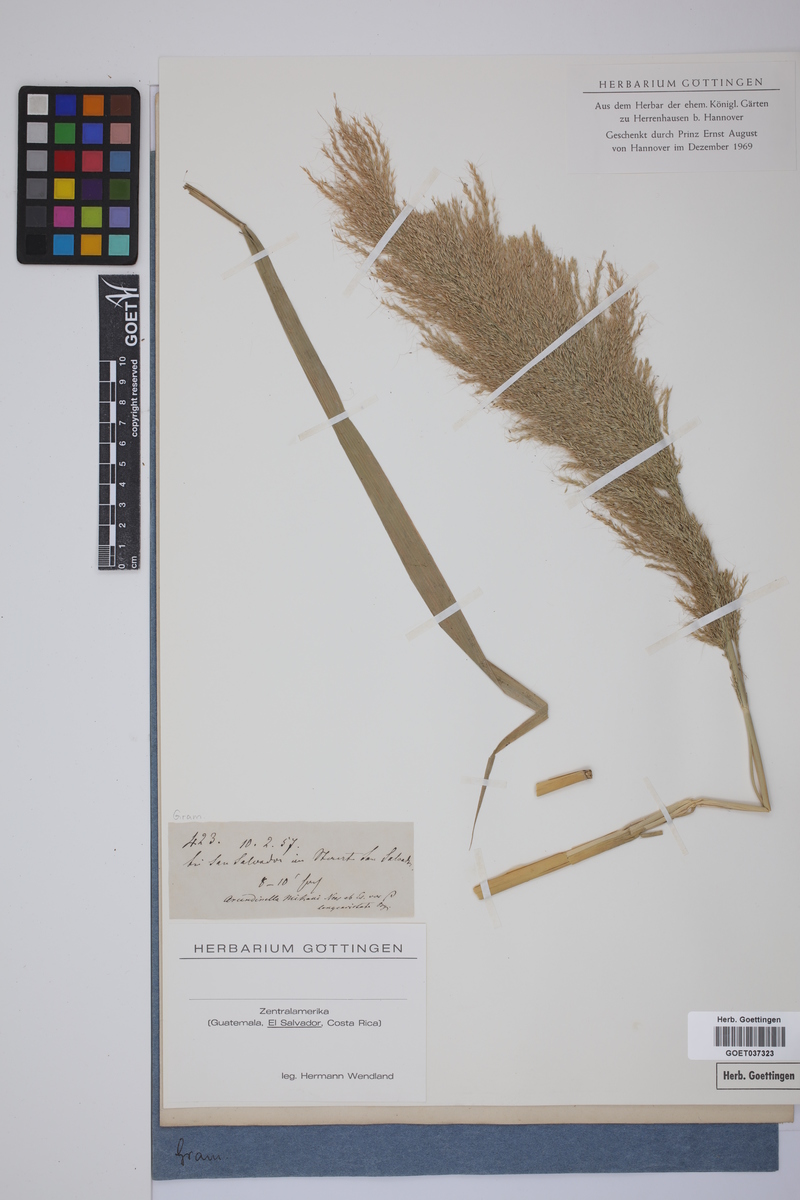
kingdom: Plantae
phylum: Tracheophyta
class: Liliopsida
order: Poales
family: Poaceae
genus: Arundinella
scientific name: Arundinella hispida
